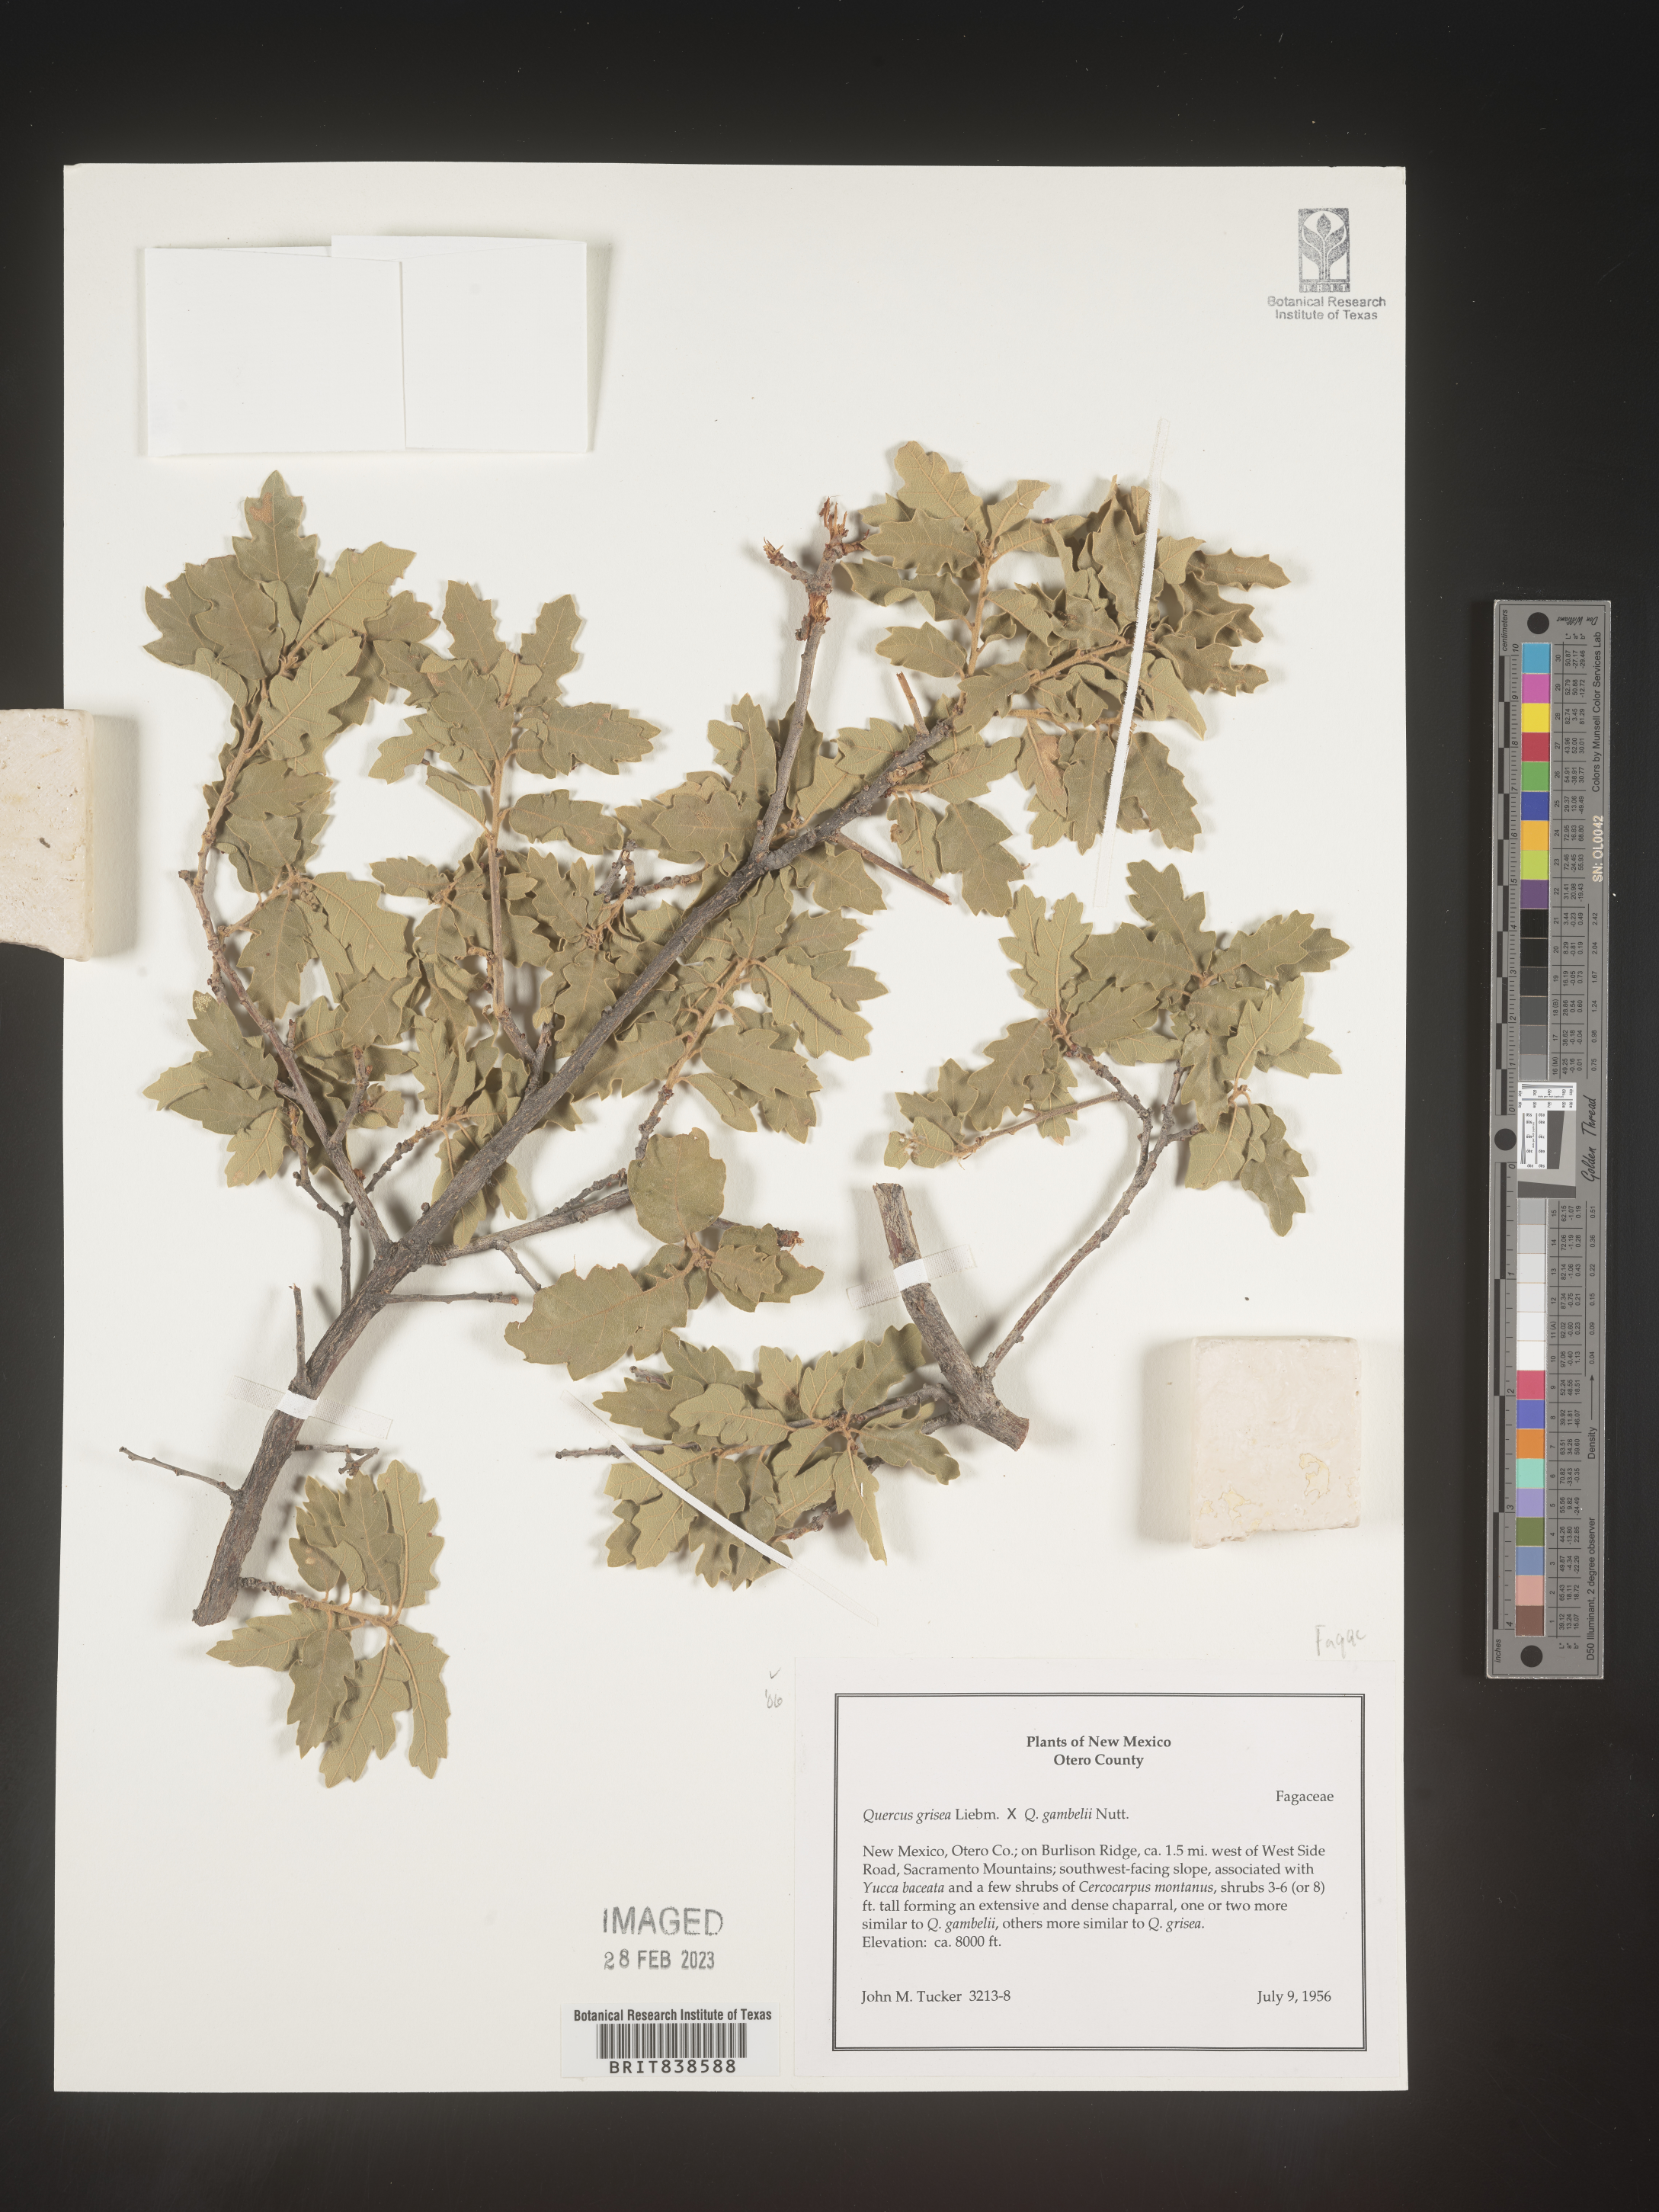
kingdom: Plantae
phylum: Tracheophyta
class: Magnoliopsida
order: Fagales
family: Fagaceae
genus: Quercus
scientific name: Quercus grisea
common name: Gray oak
